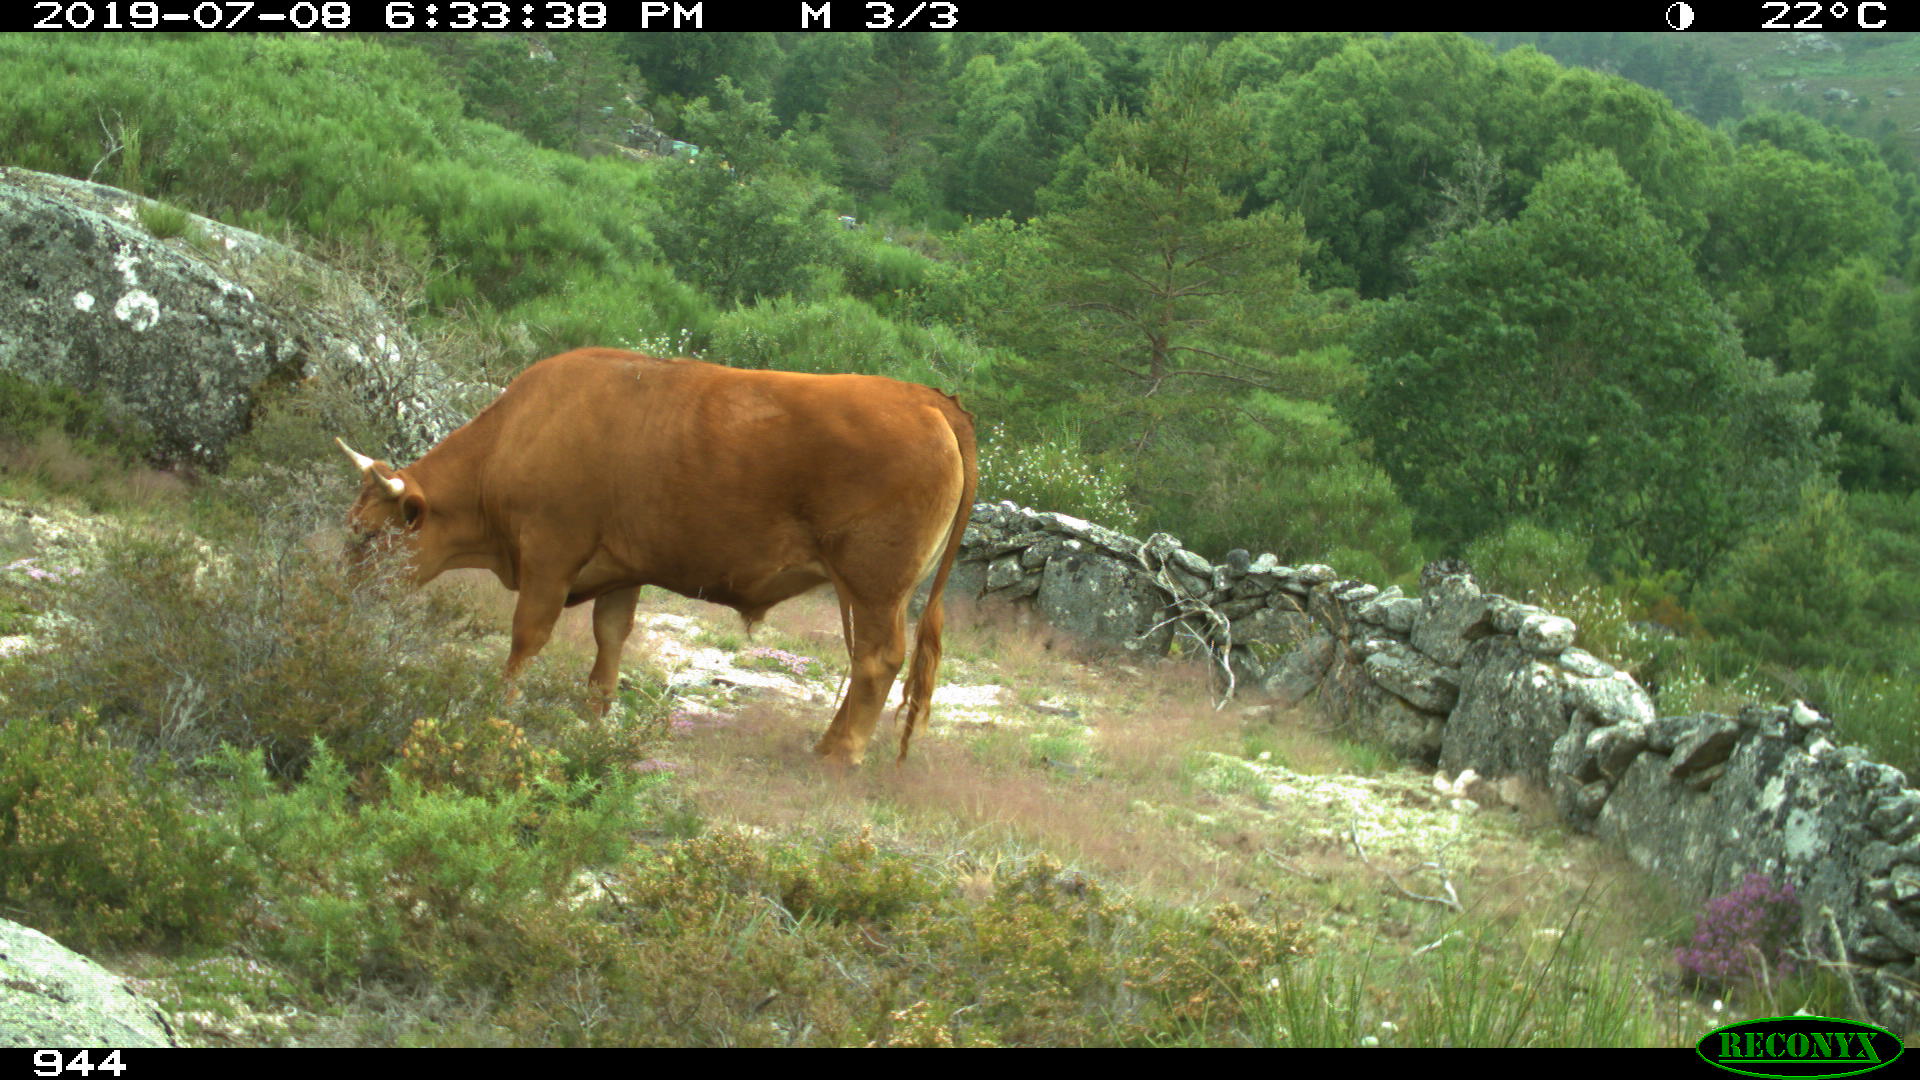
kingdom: Animalia
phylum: Chordata
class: Mammalia
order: Artiodactyla
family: Bovidae
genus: Bos
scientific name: Bos taurus
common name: Domesticated cattle
